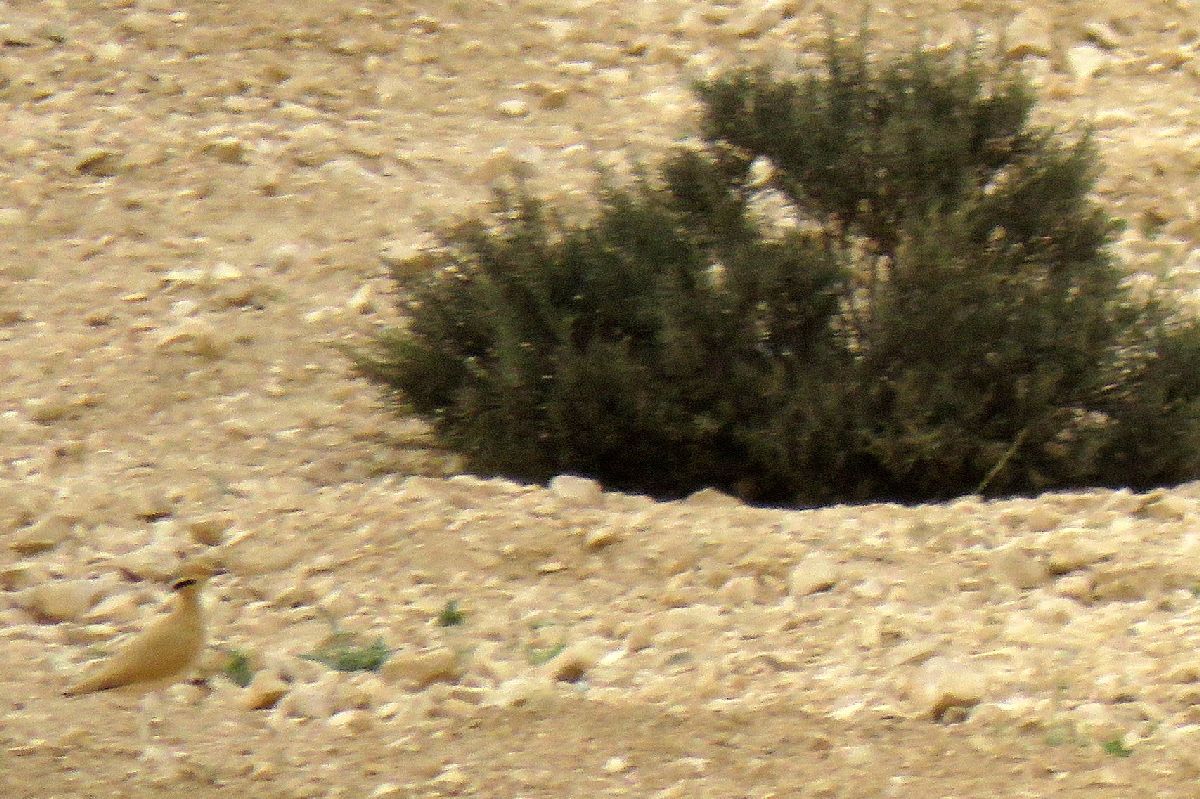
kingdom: Animalia
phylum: Chordata
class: Aves
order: Charadriiformes
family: Glareolidae
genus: Cursorius
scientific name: Cursorius cursor
